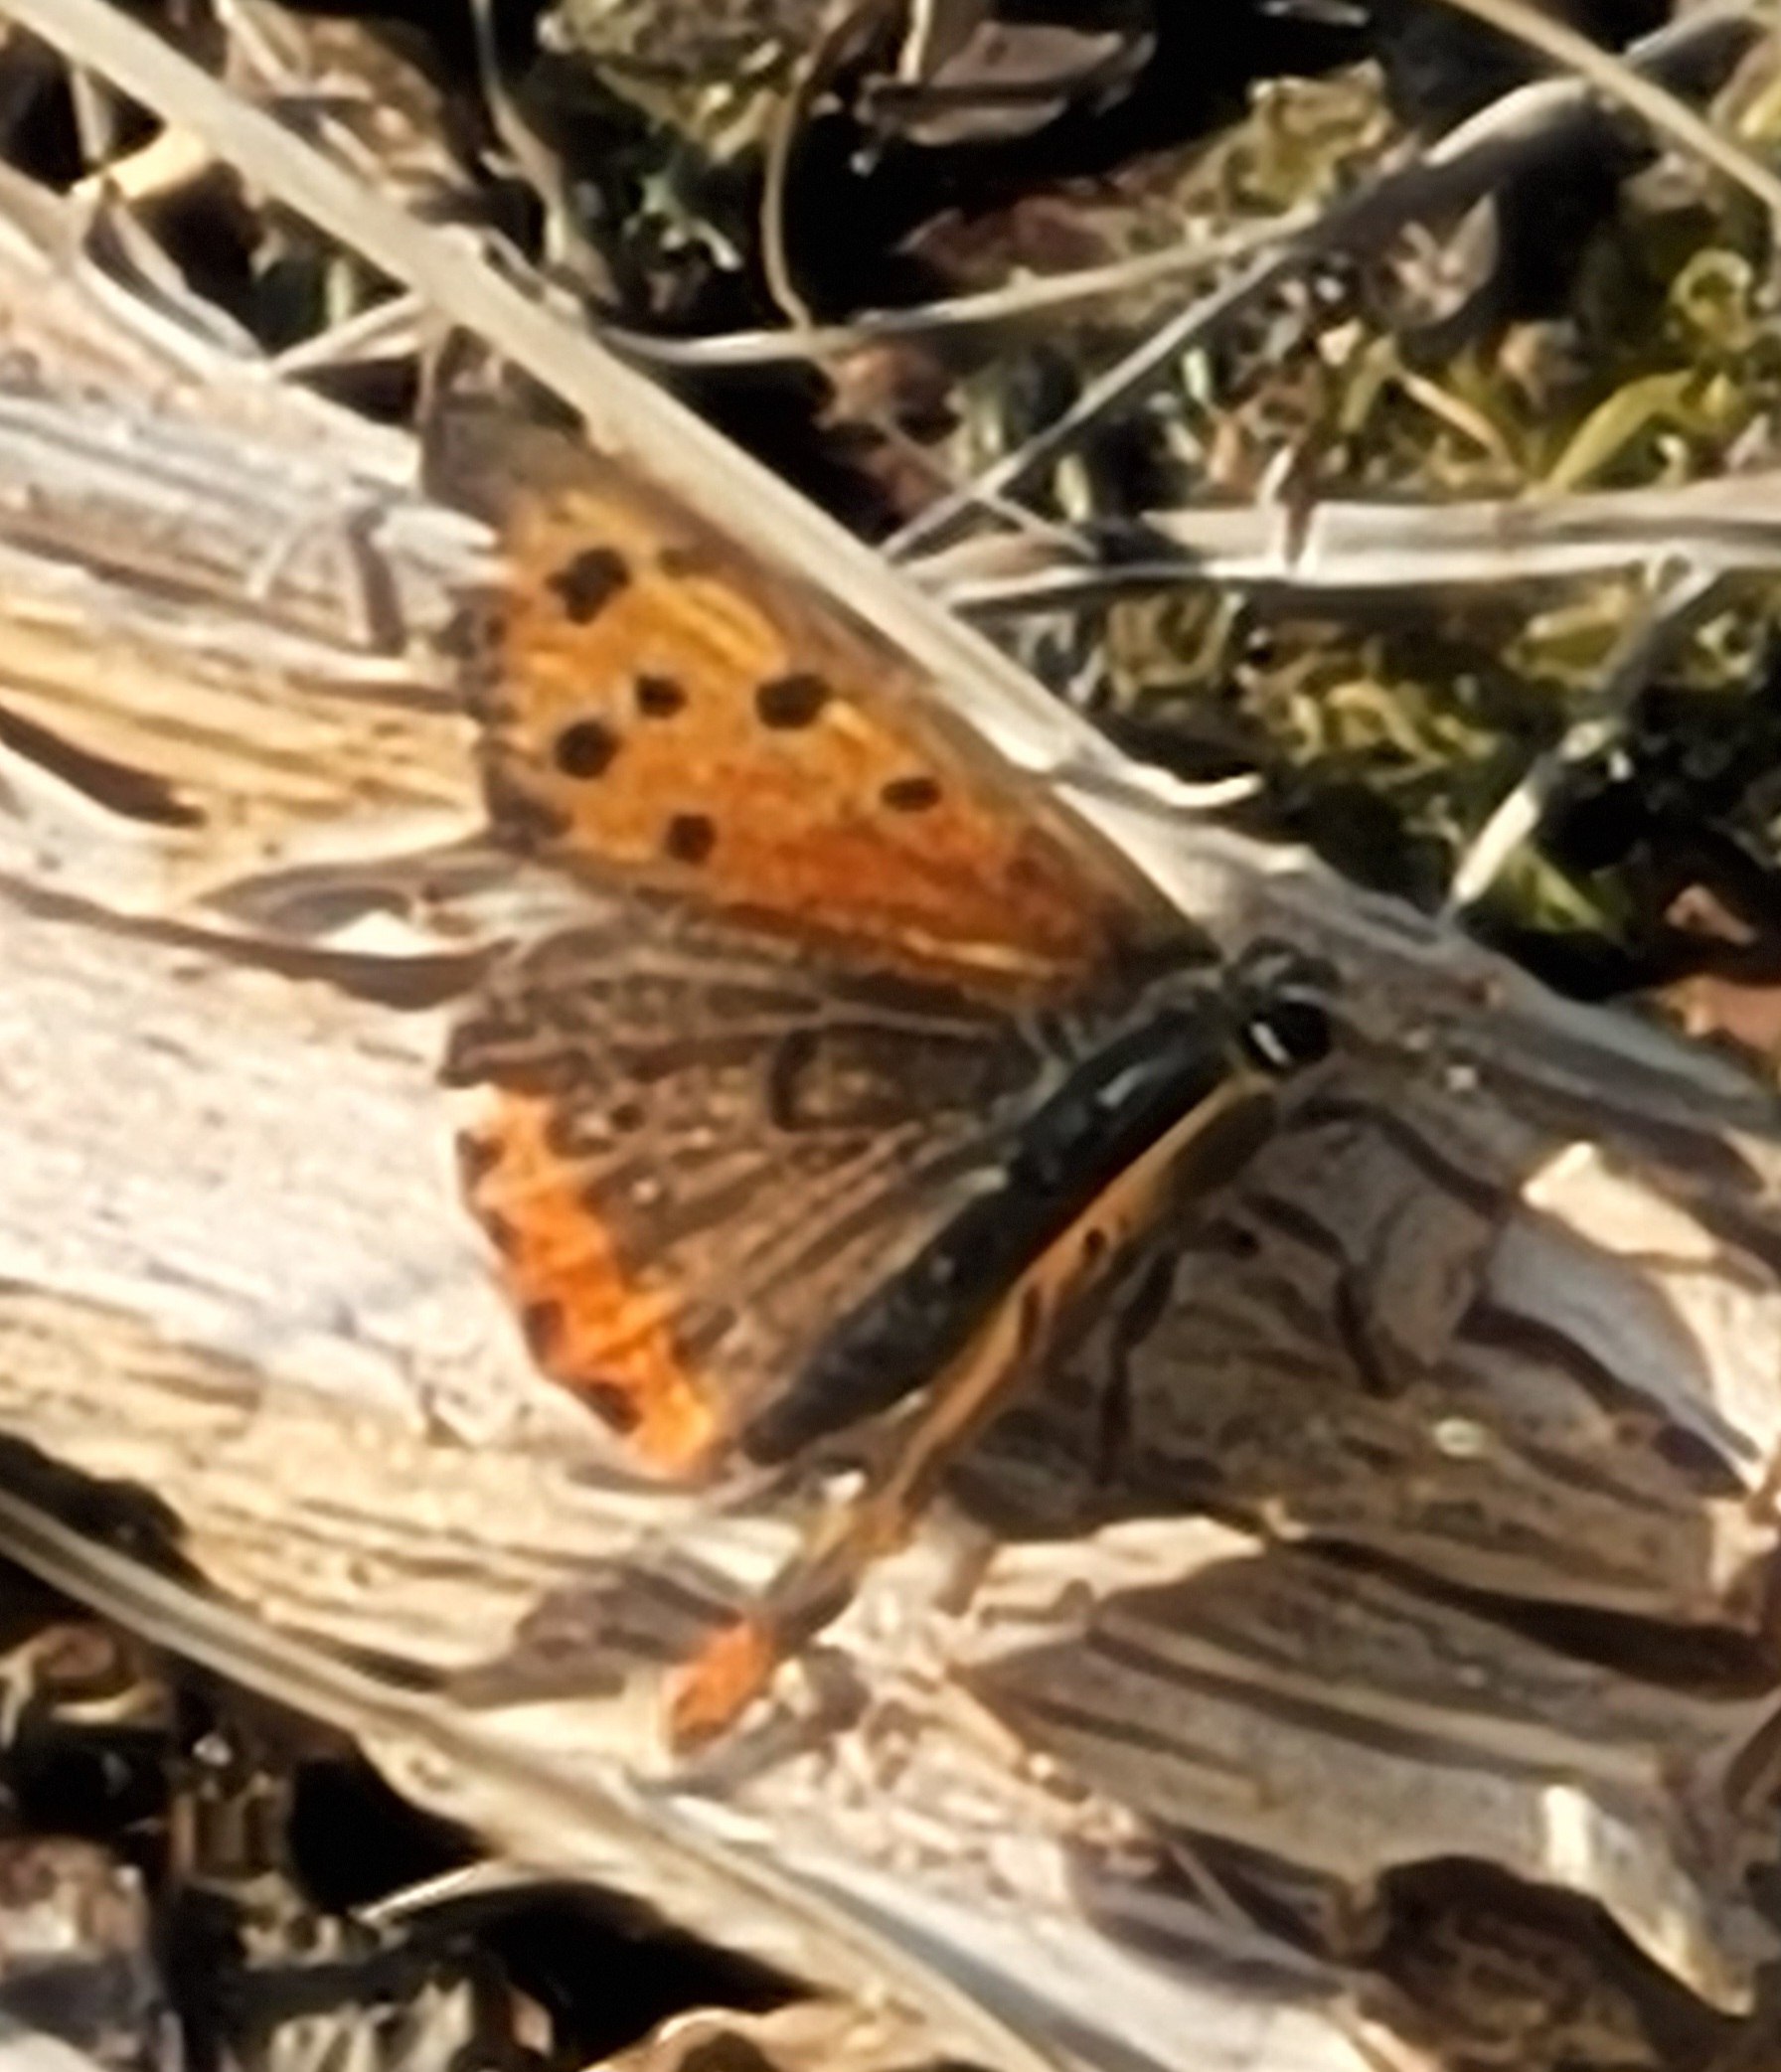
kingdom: Animalia
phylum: Arthropoda
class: Insecta
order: Lepidoptera
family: Lycaenidae
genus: Lycaena
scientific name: Lycaena phlaeas
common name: Lille ildfugl
